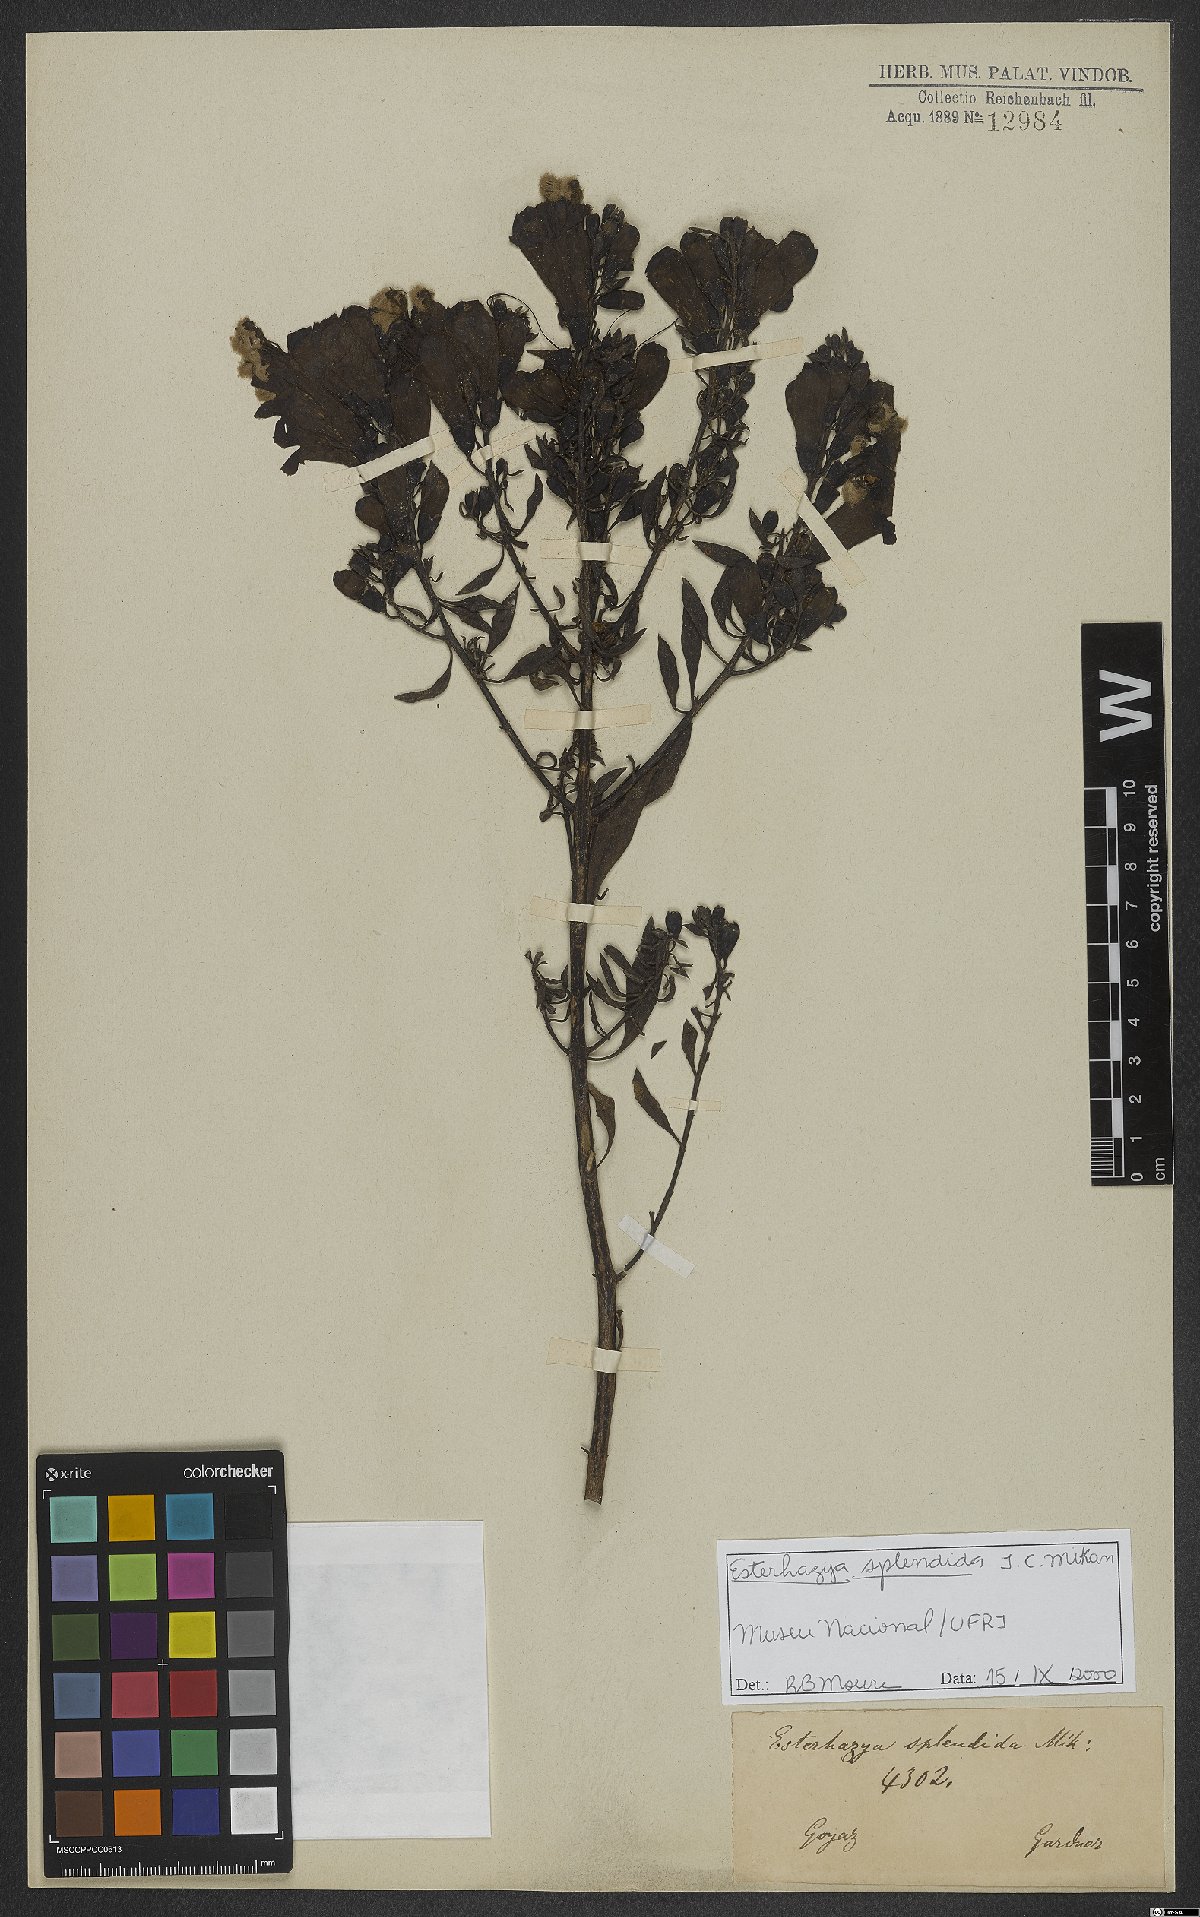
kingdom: Plantae
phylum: Tracheophyta
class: Magnoliopsida
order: Lamiales
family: Orobanchaceae
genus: Esterhazya
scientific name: Esterhazya splendida
